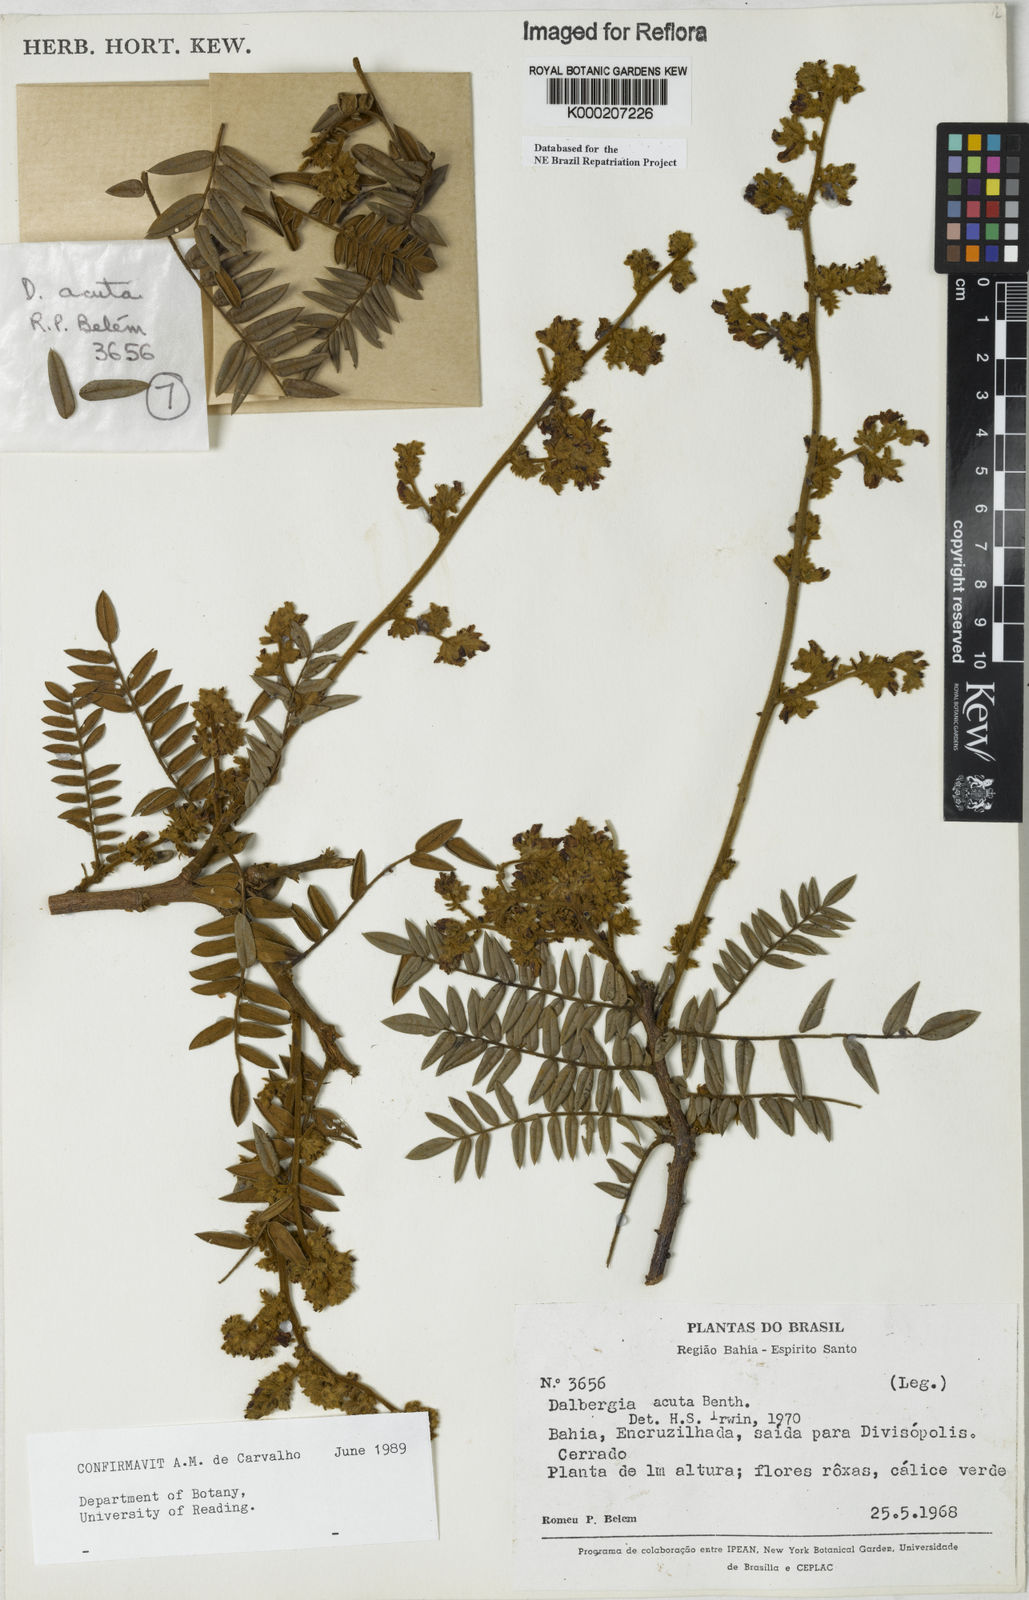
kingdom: Plantae
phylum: Tracheophyta
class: Magnoliopsida
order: Fabales
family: Fabaceae
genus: Dalbergia
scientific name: Dalbergia acuta
